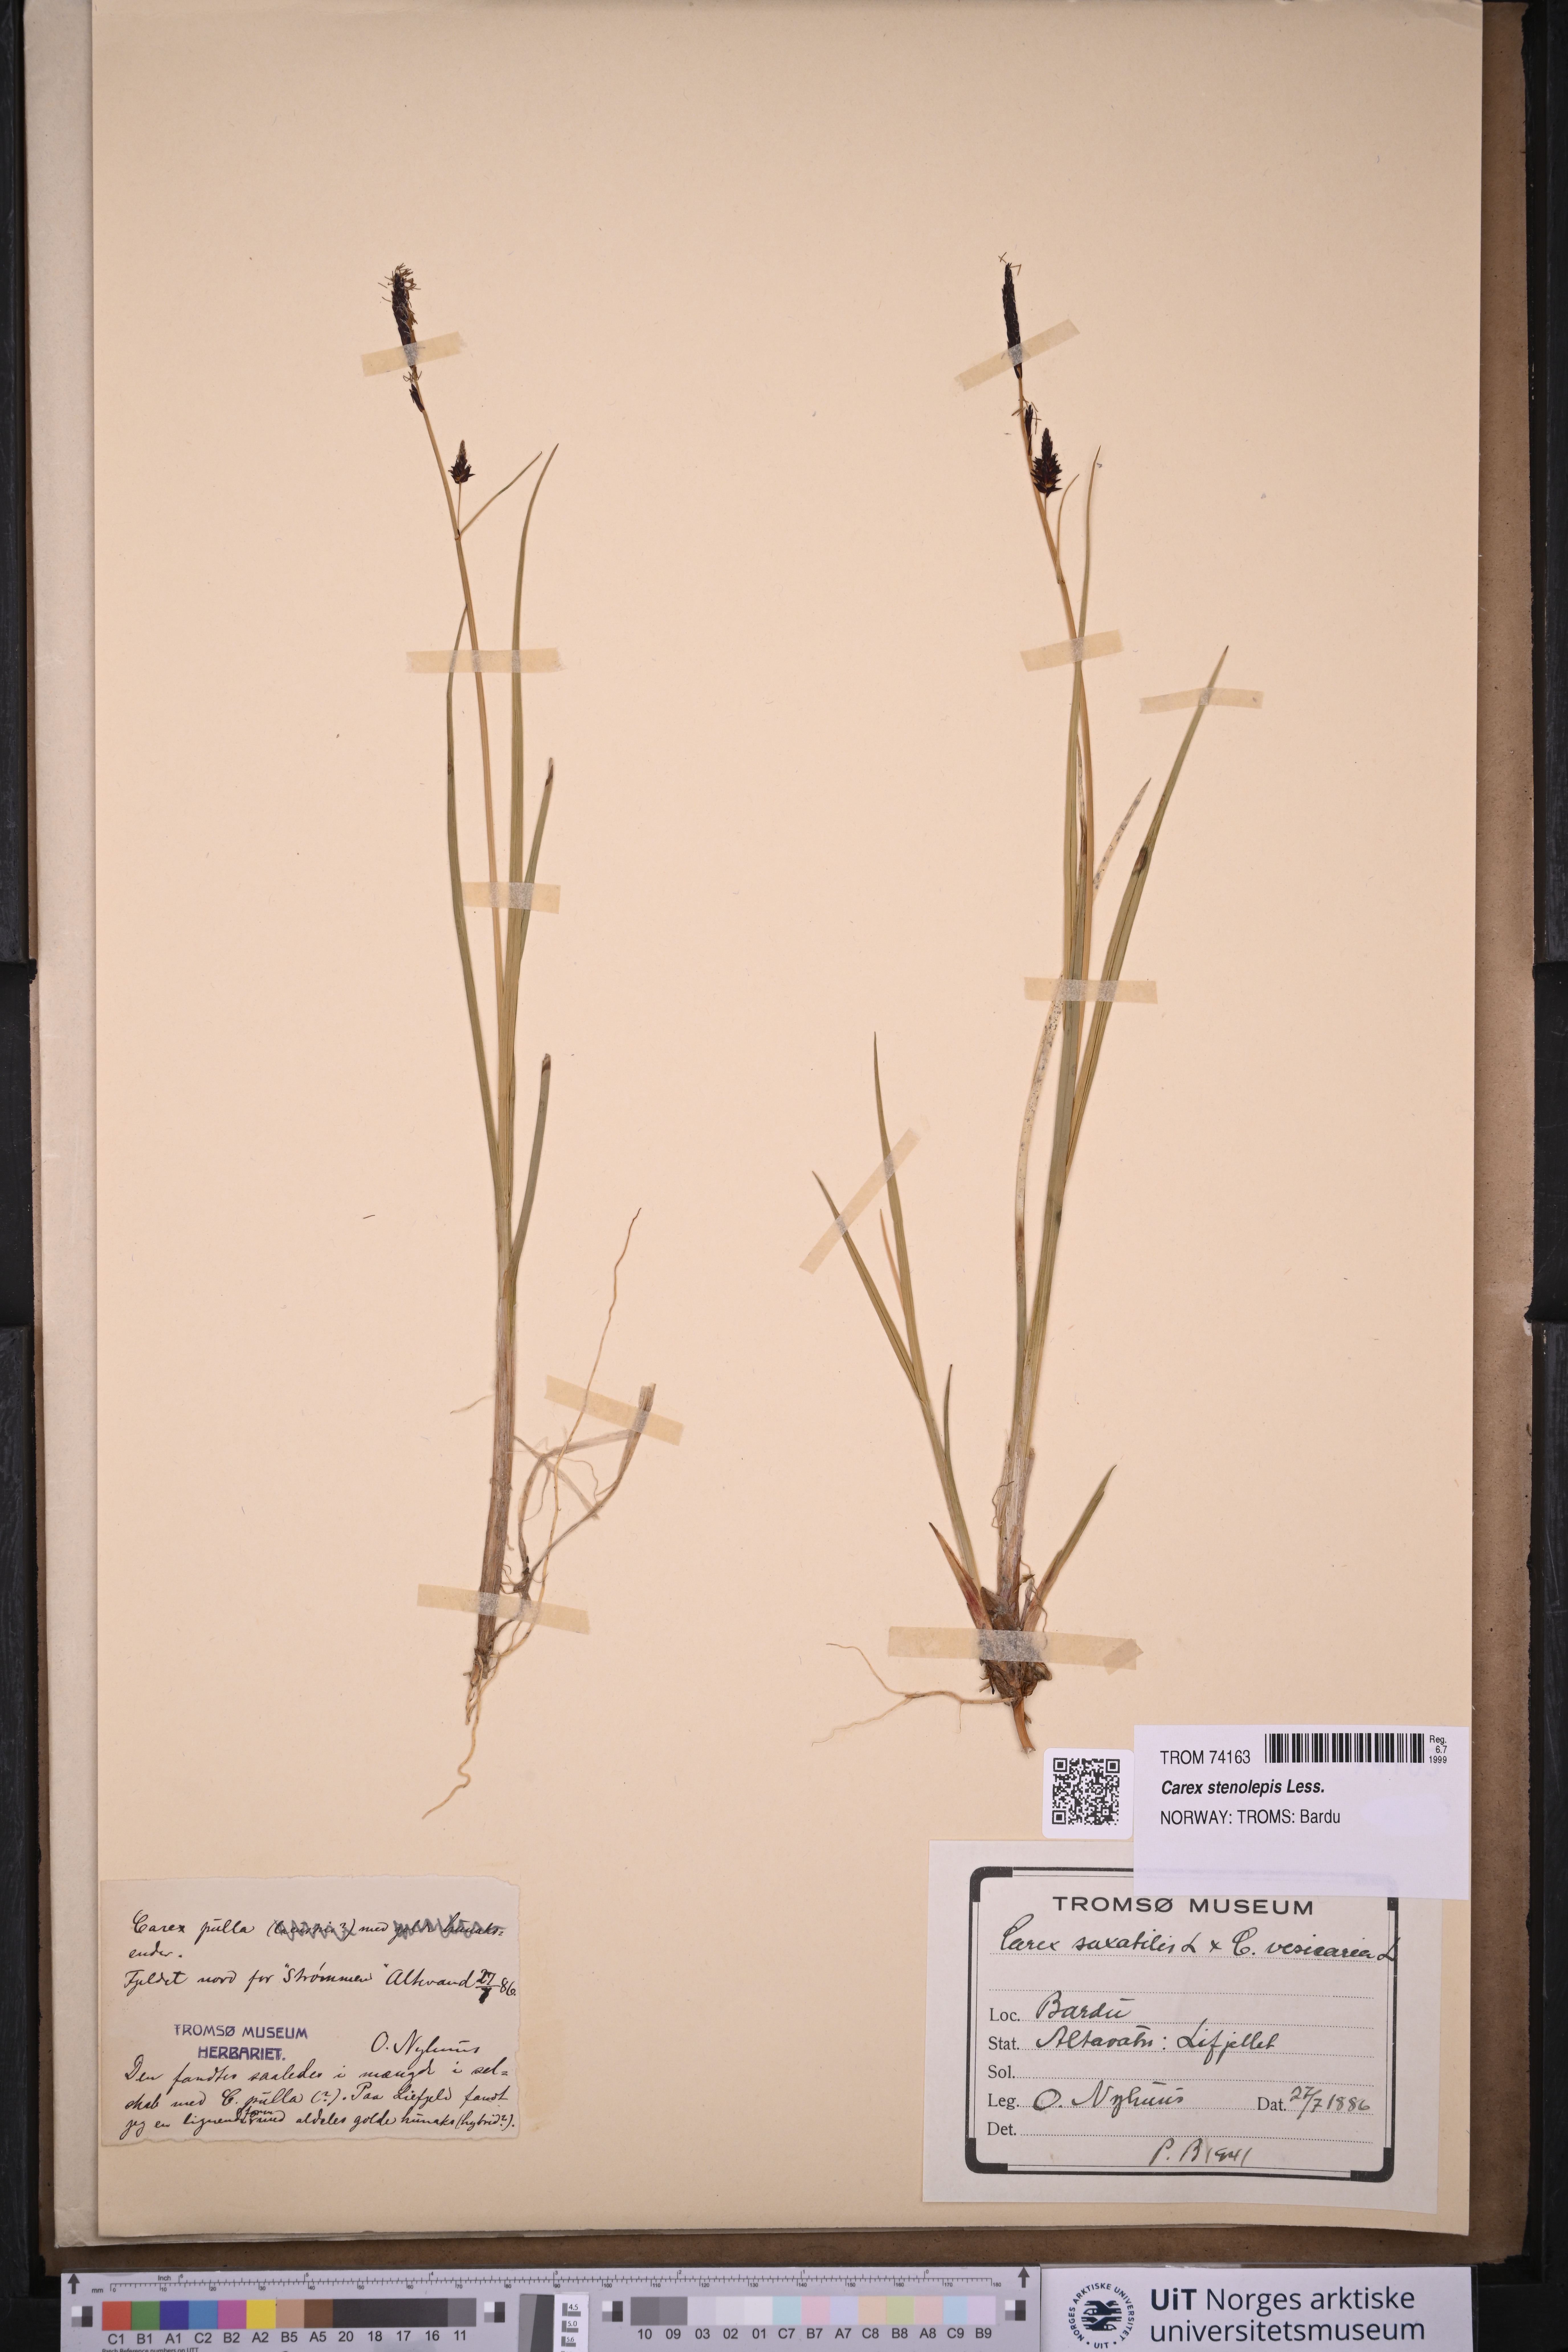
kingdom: Plantae
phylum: Tracheophyta
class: Liliopsida
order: Poales
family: Cyperaceae
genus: Carex
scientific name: Carex grahamii
